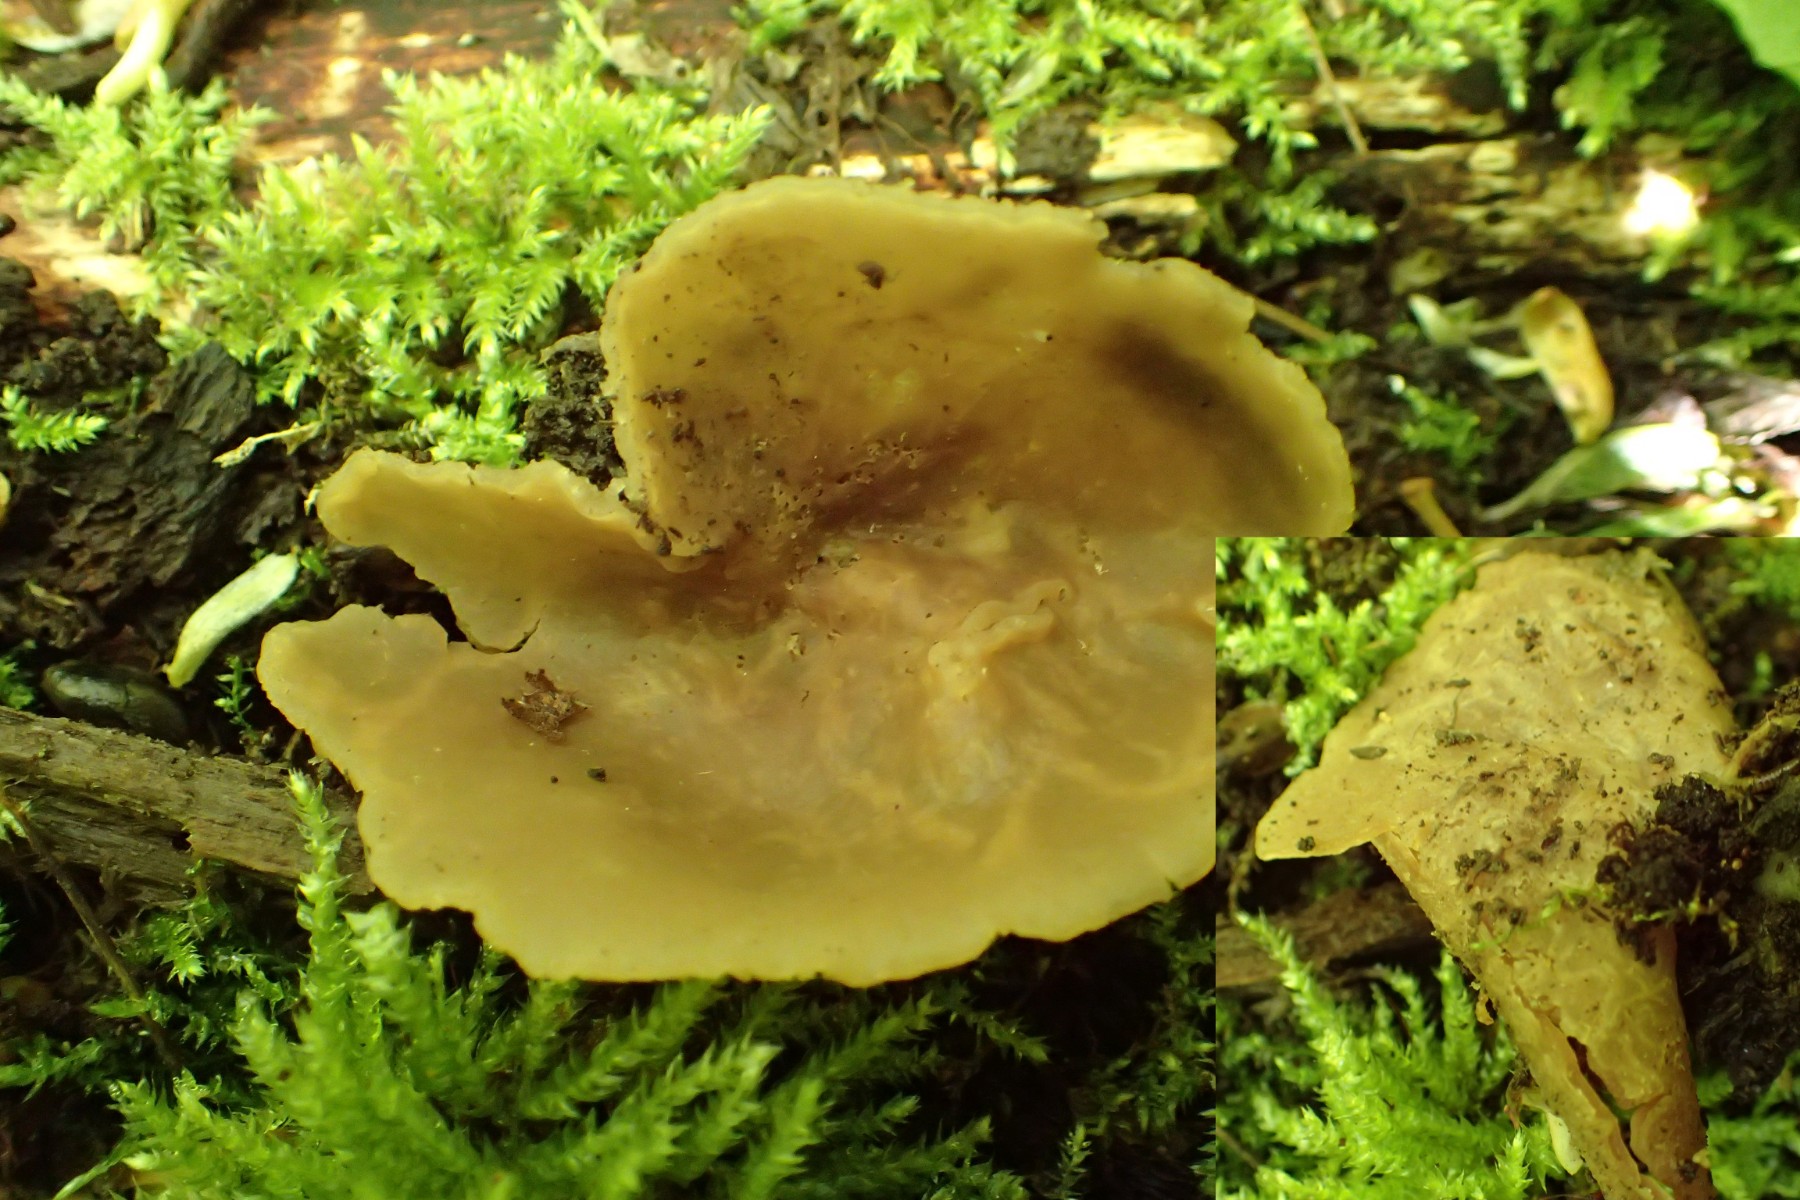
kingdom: Fungi
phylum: Ascomycota
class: Pezizomycetes
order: Pezizales
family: Pezizaceae
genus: Peziza
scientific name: Peziza varia
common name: Ved-bægersvamp
